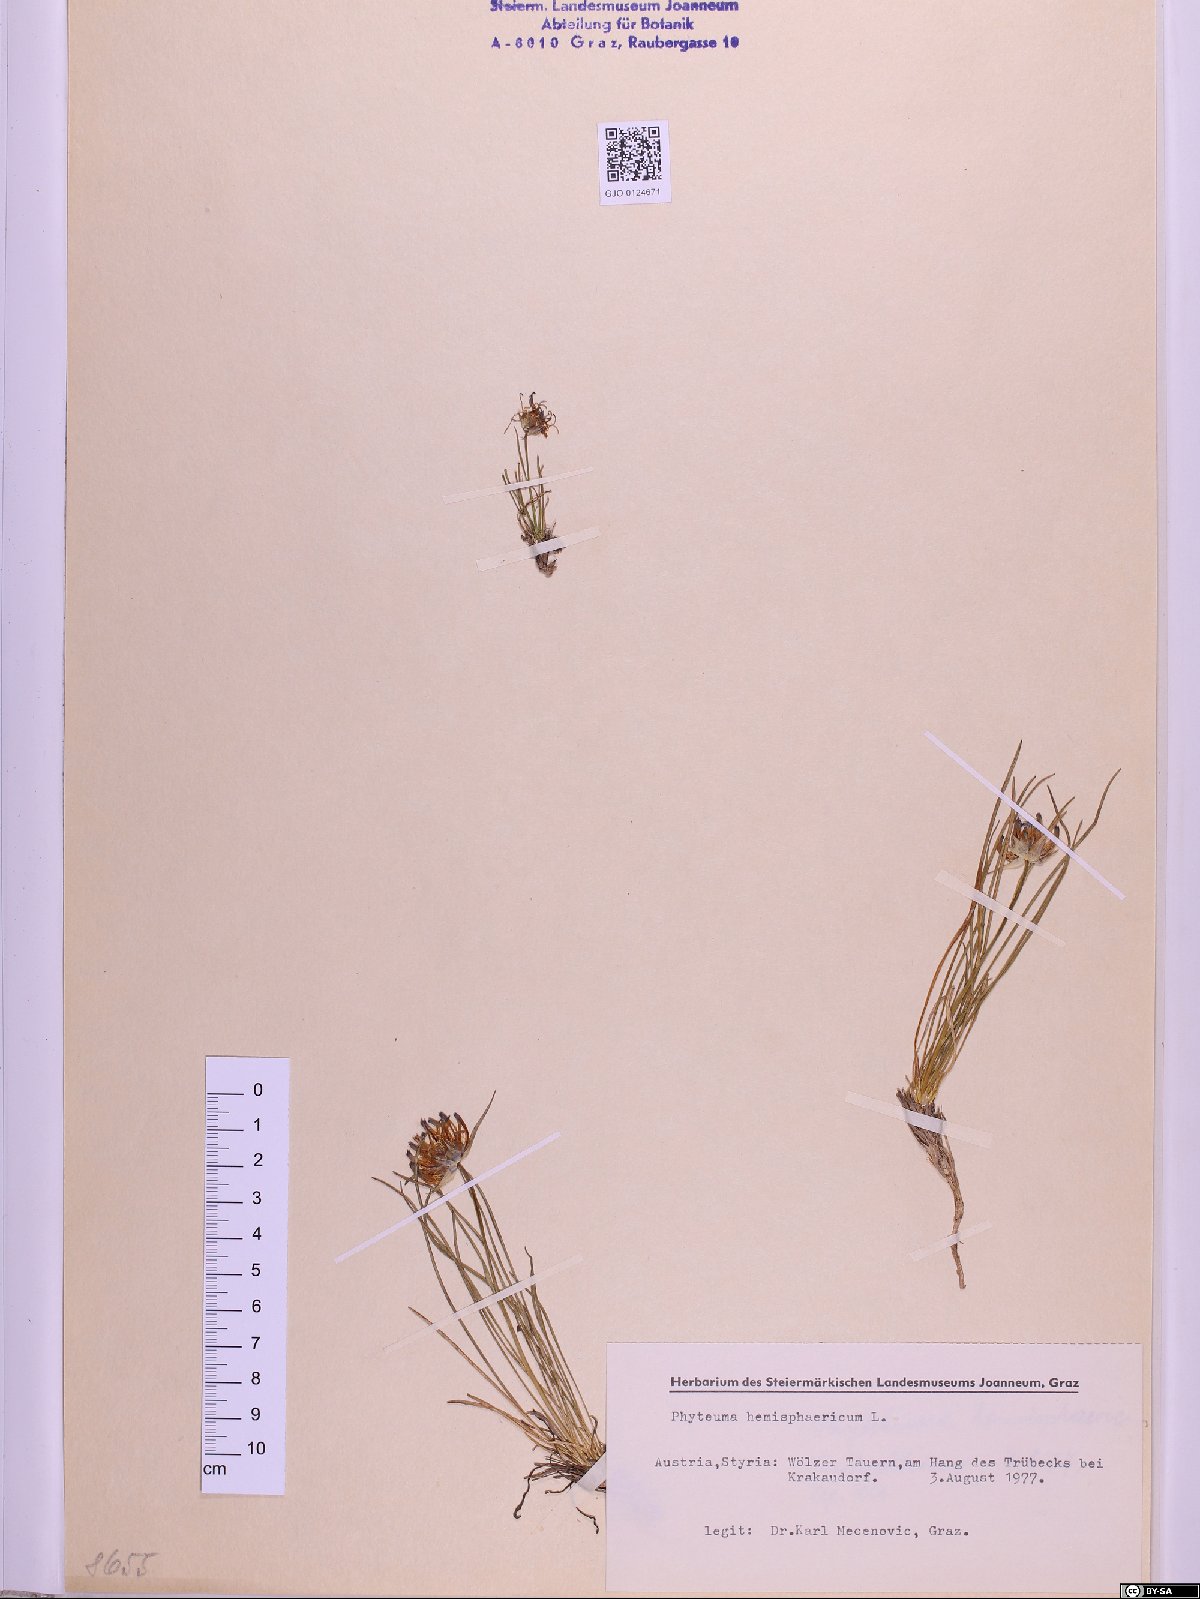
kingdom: Plantae
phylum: Tracheophyta
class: Magnoliopsida
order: Asterales
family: Campanulaceae
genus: Phyteuma
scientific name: Phyteuma hemisphaericum
